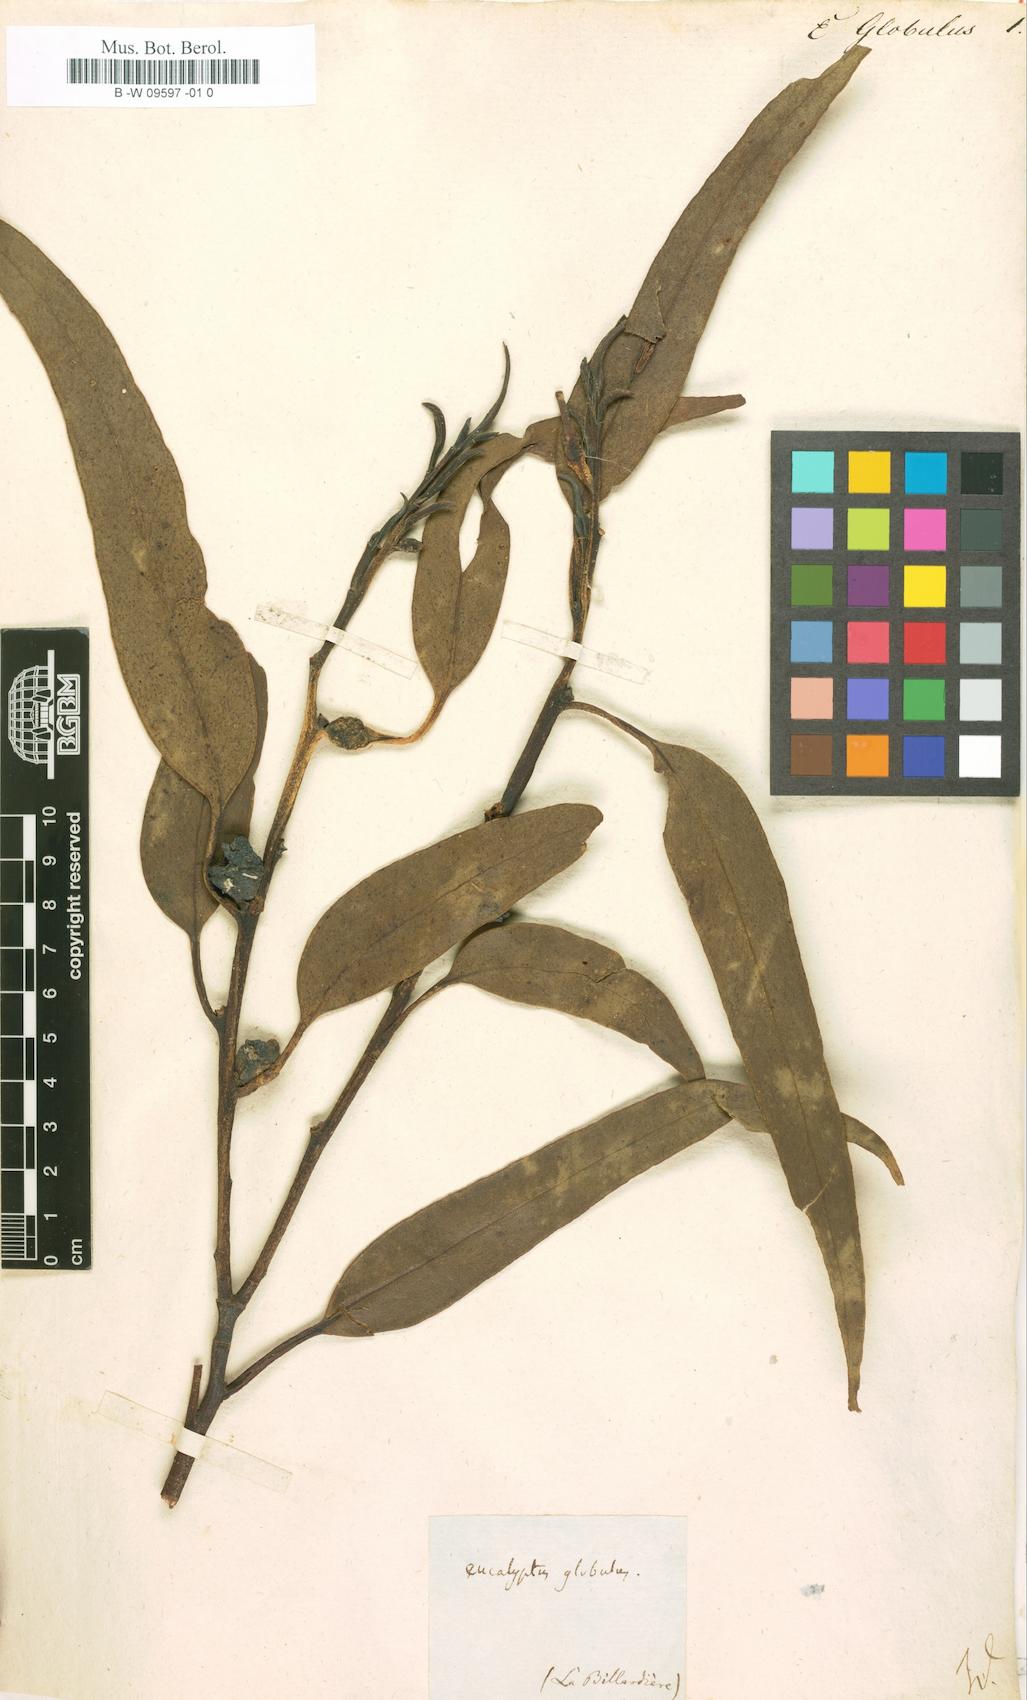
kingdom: Plantae
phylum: Tracheophyta
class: Magnoliopsida
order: Myrtales
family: Myrtaceae
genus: Eucalyptus
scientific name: Eucalyptus globulus
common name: Southern blue-gum
